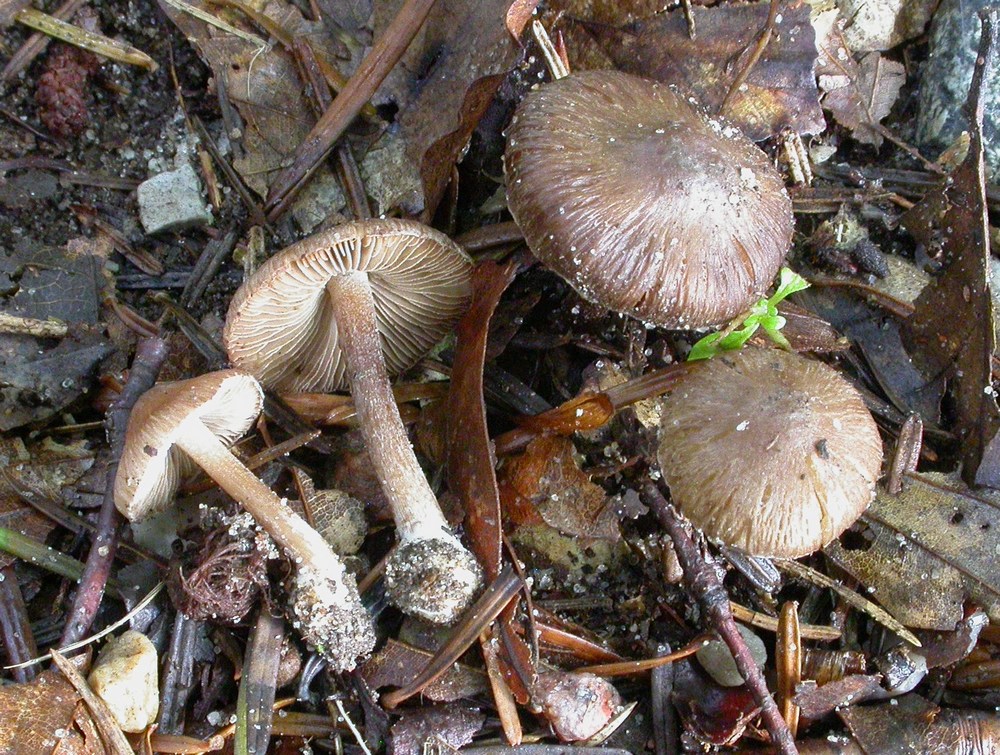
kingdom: Fungi
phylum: Basidiomycota
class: Agaricomycetes
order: Agaricales
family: Inocybaceae
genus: Inocybe
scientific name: Inocybe assimilata
